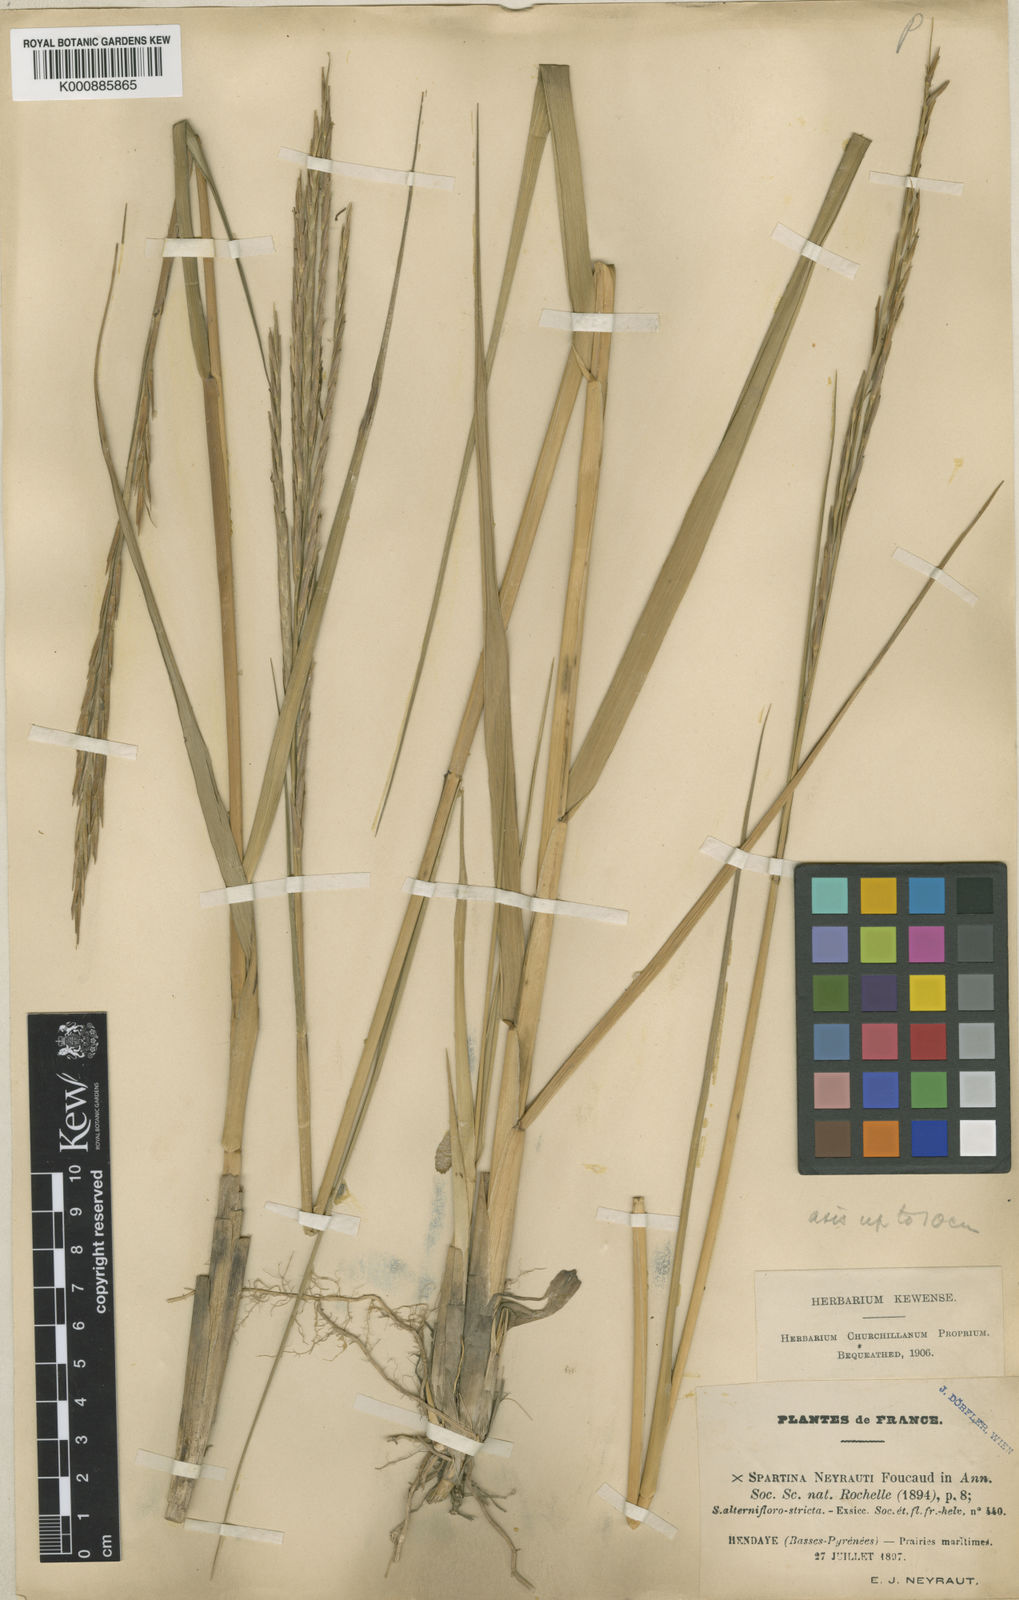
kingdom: Plantae
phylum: Tracheophyta
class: Liliopsida
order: Poales
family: Poaceae
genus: Sporobolus
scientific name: Sporobolus townsendii
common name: Townsend's cordgrass
